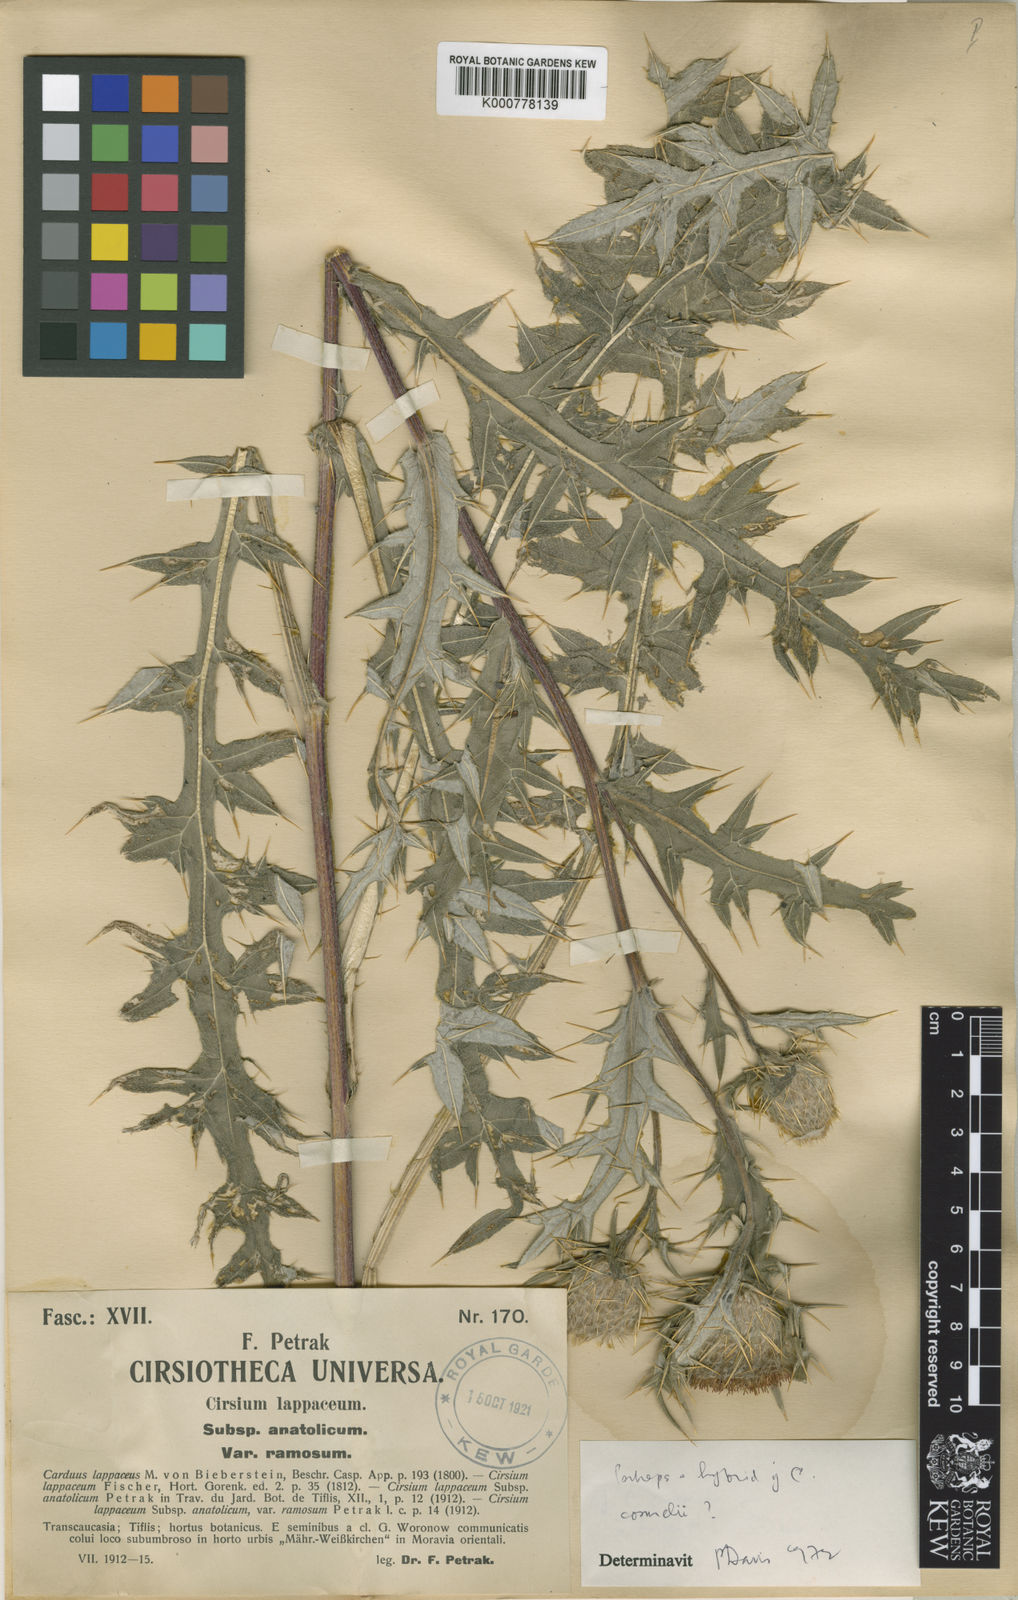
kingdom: Plantae
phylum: Tracheophyta
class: Magnoliopsida
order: Asterales
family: Asteraceae
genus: Lophiolepis
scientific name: Lophiolepis lappacea
